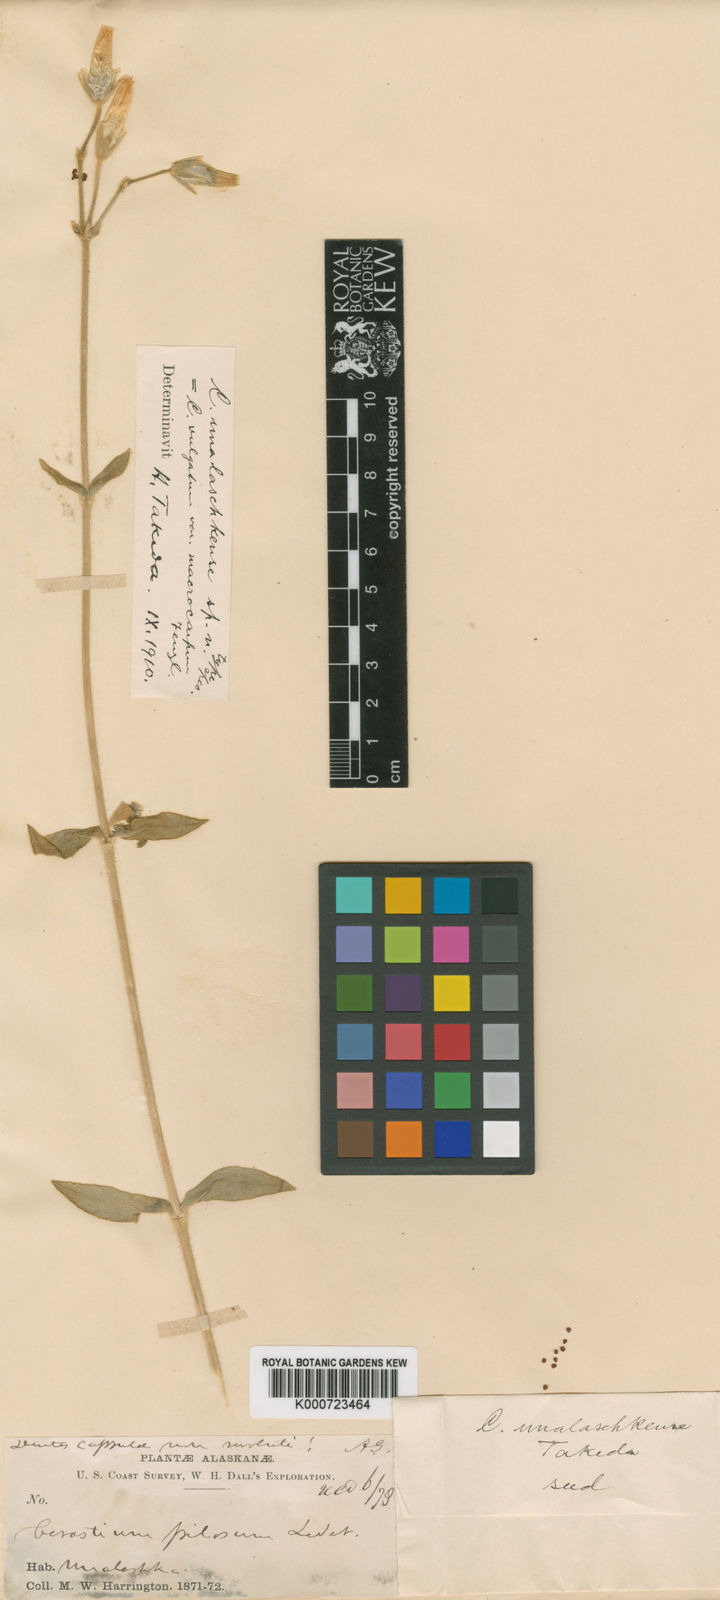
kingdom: Plantae
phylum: Tracheophyta
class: Magnoliopsida
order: Caryophyllales
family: Caryophyllaceae
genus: Cerastium
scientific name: Cerastium fischerianum
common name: Fischer's chickweed
